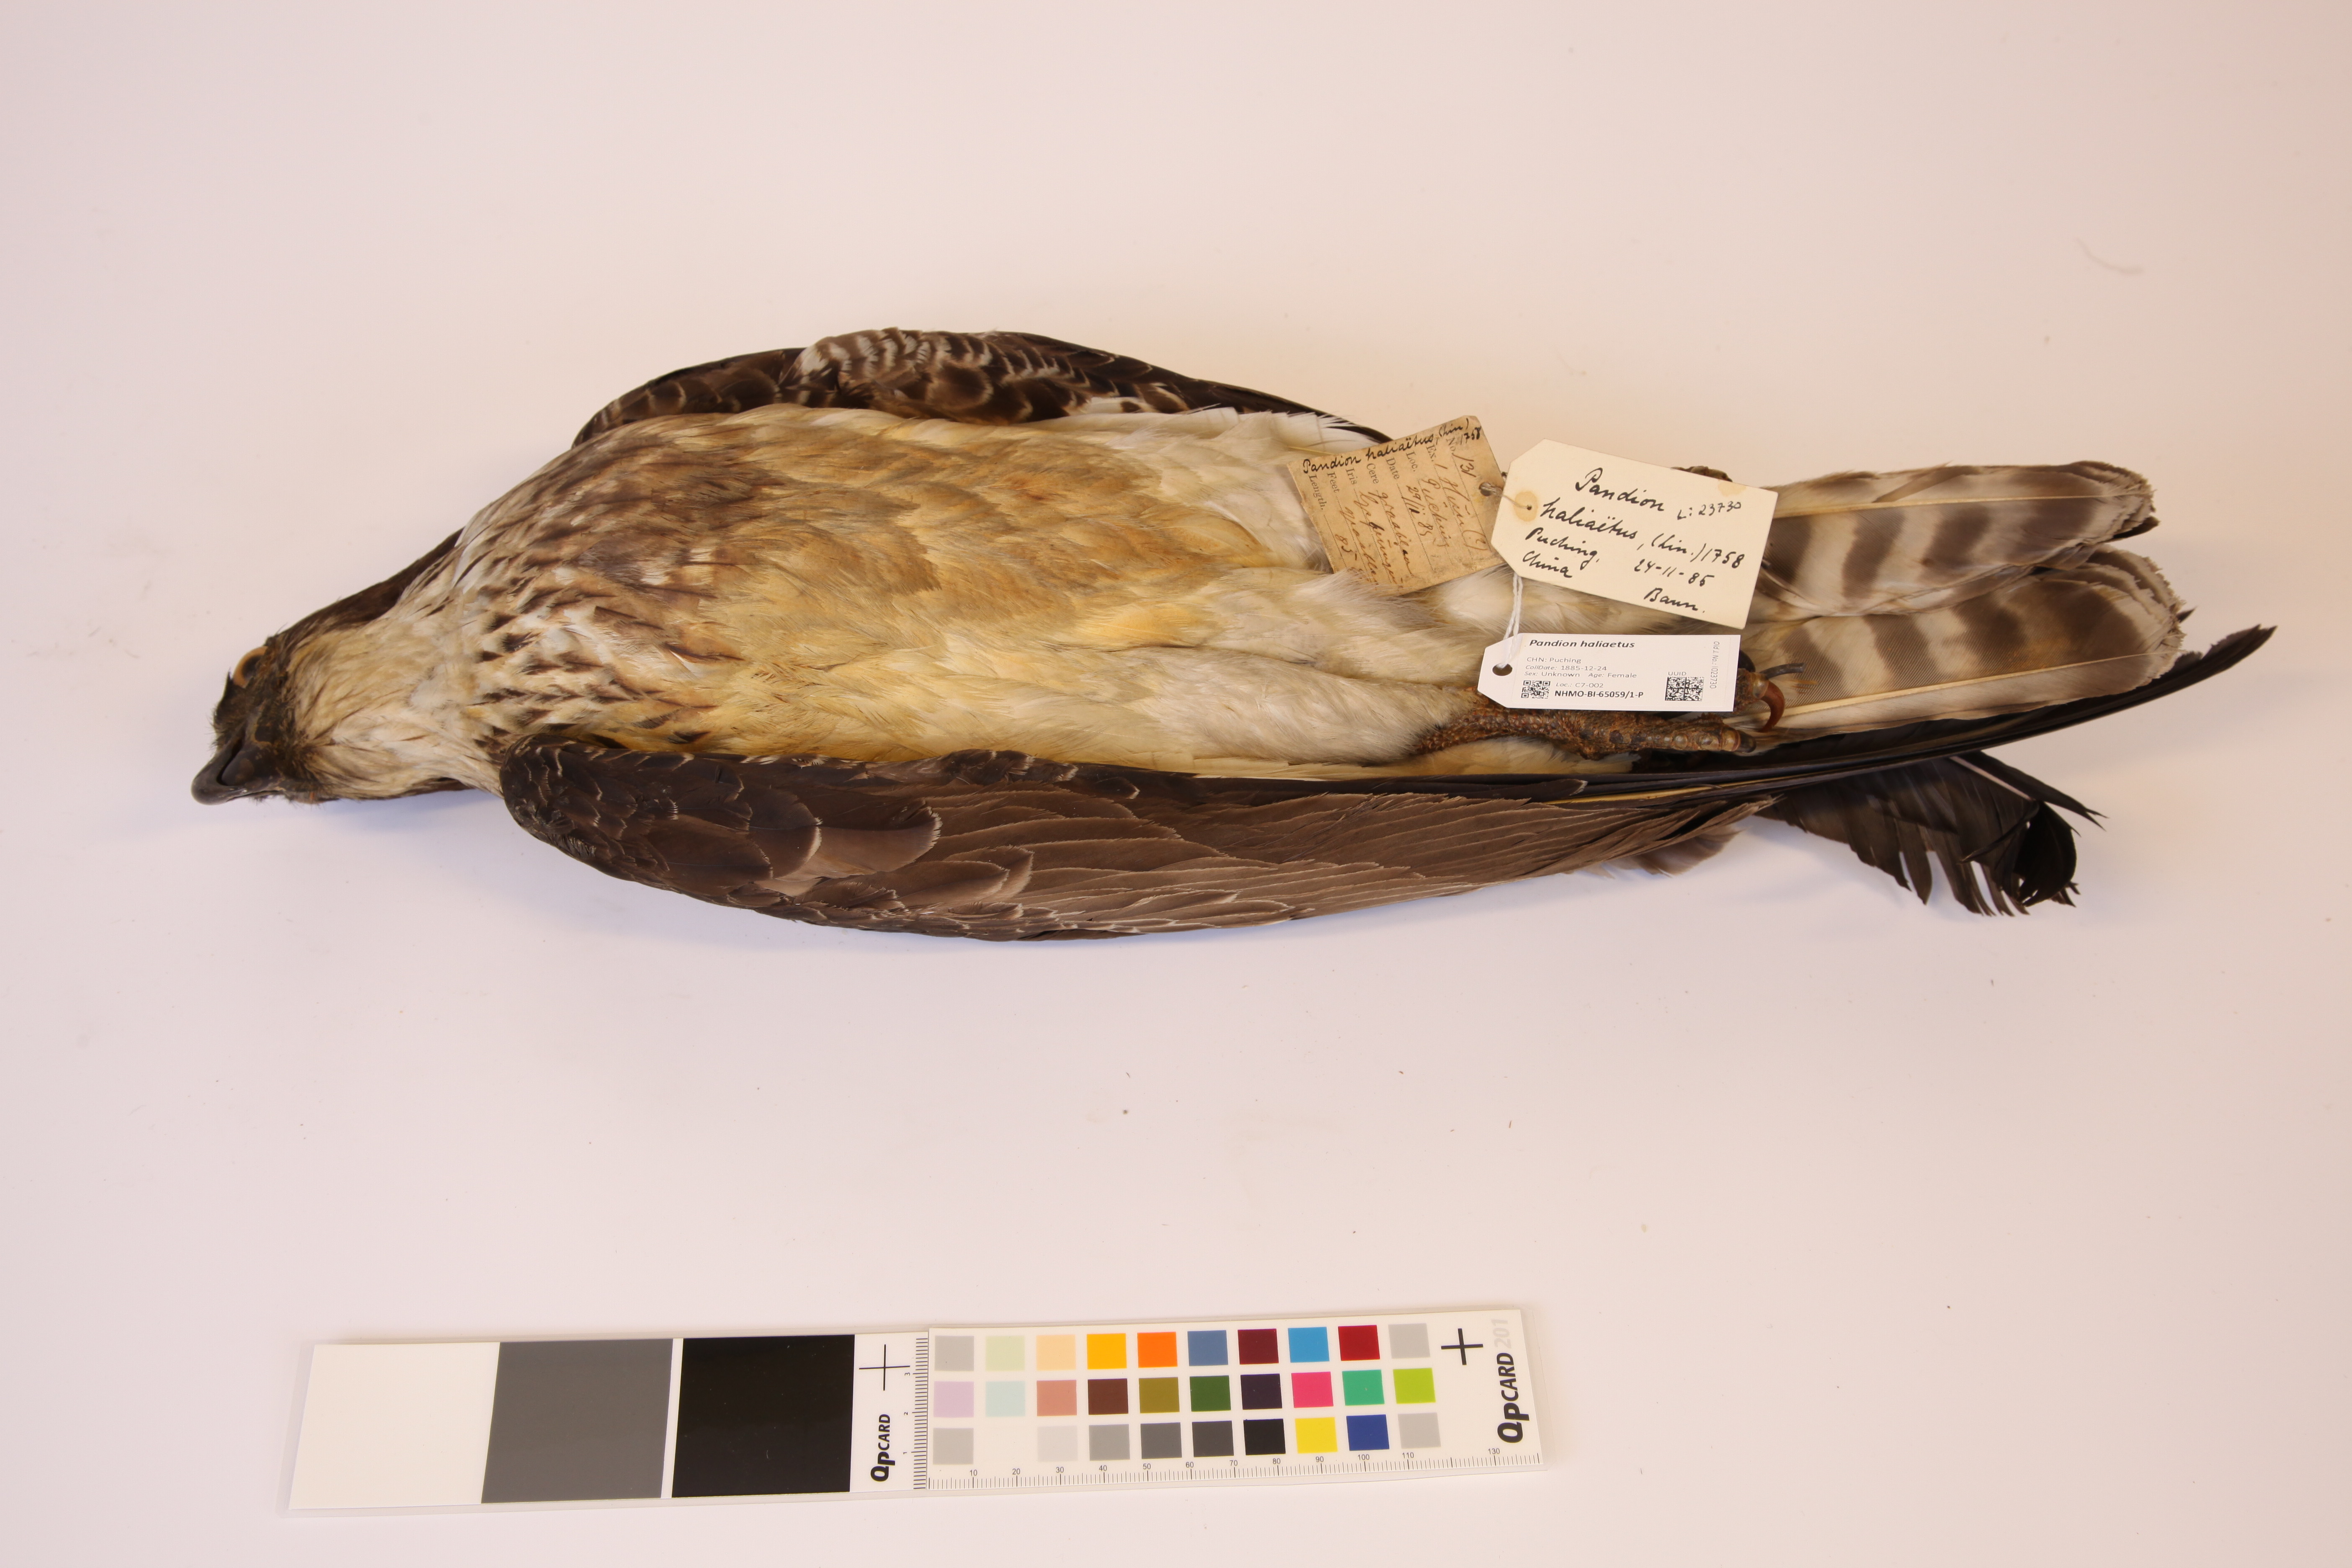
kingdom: Animalia
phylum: Chordata
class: Aves
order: Accipitriformes
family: Pandionidae
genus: Pandion
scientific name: Pandion haliaetus
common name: Osprey
